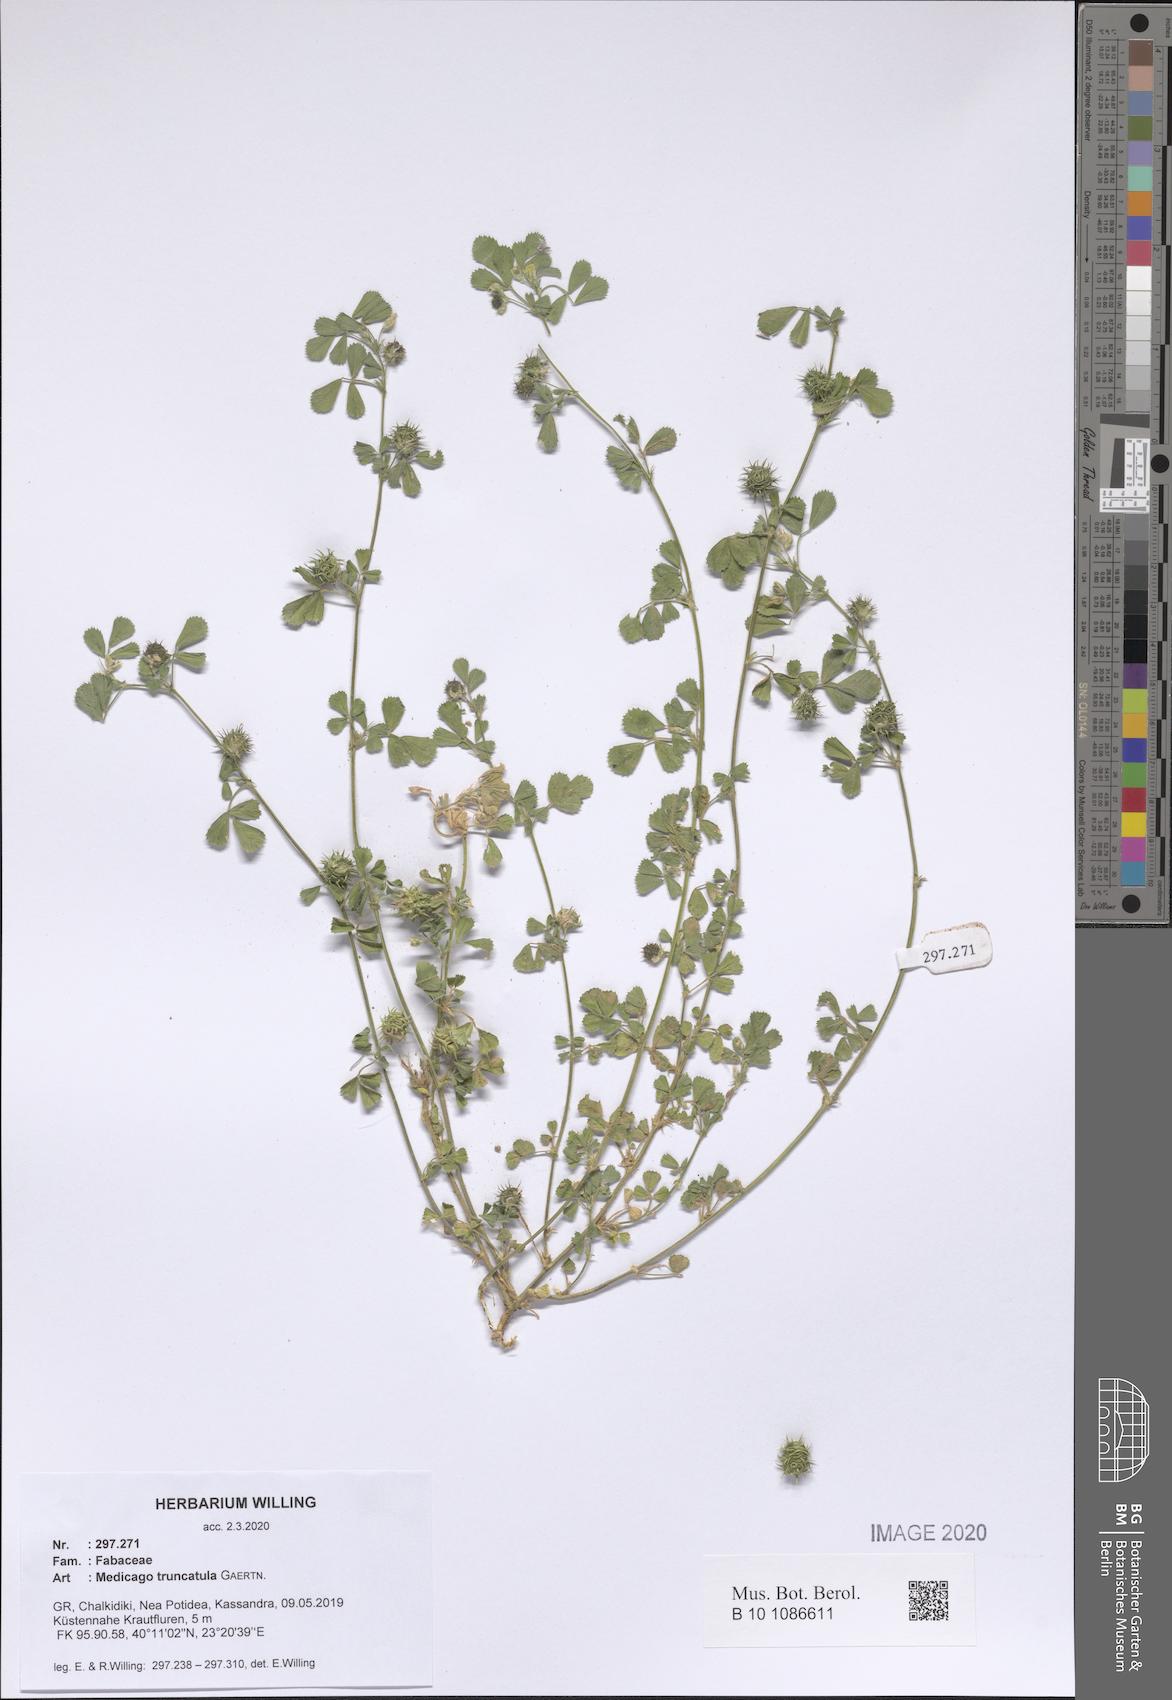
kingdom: Plantae
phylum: Tracheophyta
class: Magnoliopsida
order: Fabales
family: Fabaceae
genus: Medicago
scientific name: Medicago truncatula
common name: Strong-spined medick
